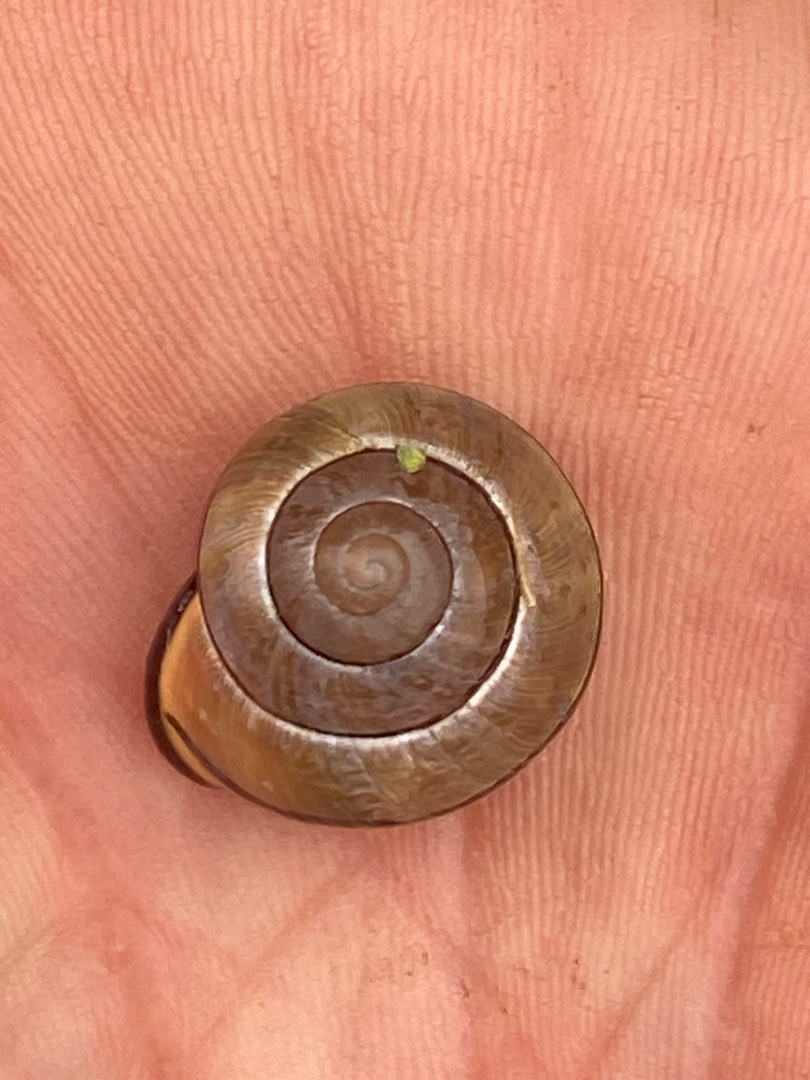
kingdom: Animalia
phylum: Mollusca
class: Gastropoda
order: Stylommatophora
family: Helicidae
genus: Cepaea
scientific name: Cepaea nemoralis
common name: Lundsnegl
